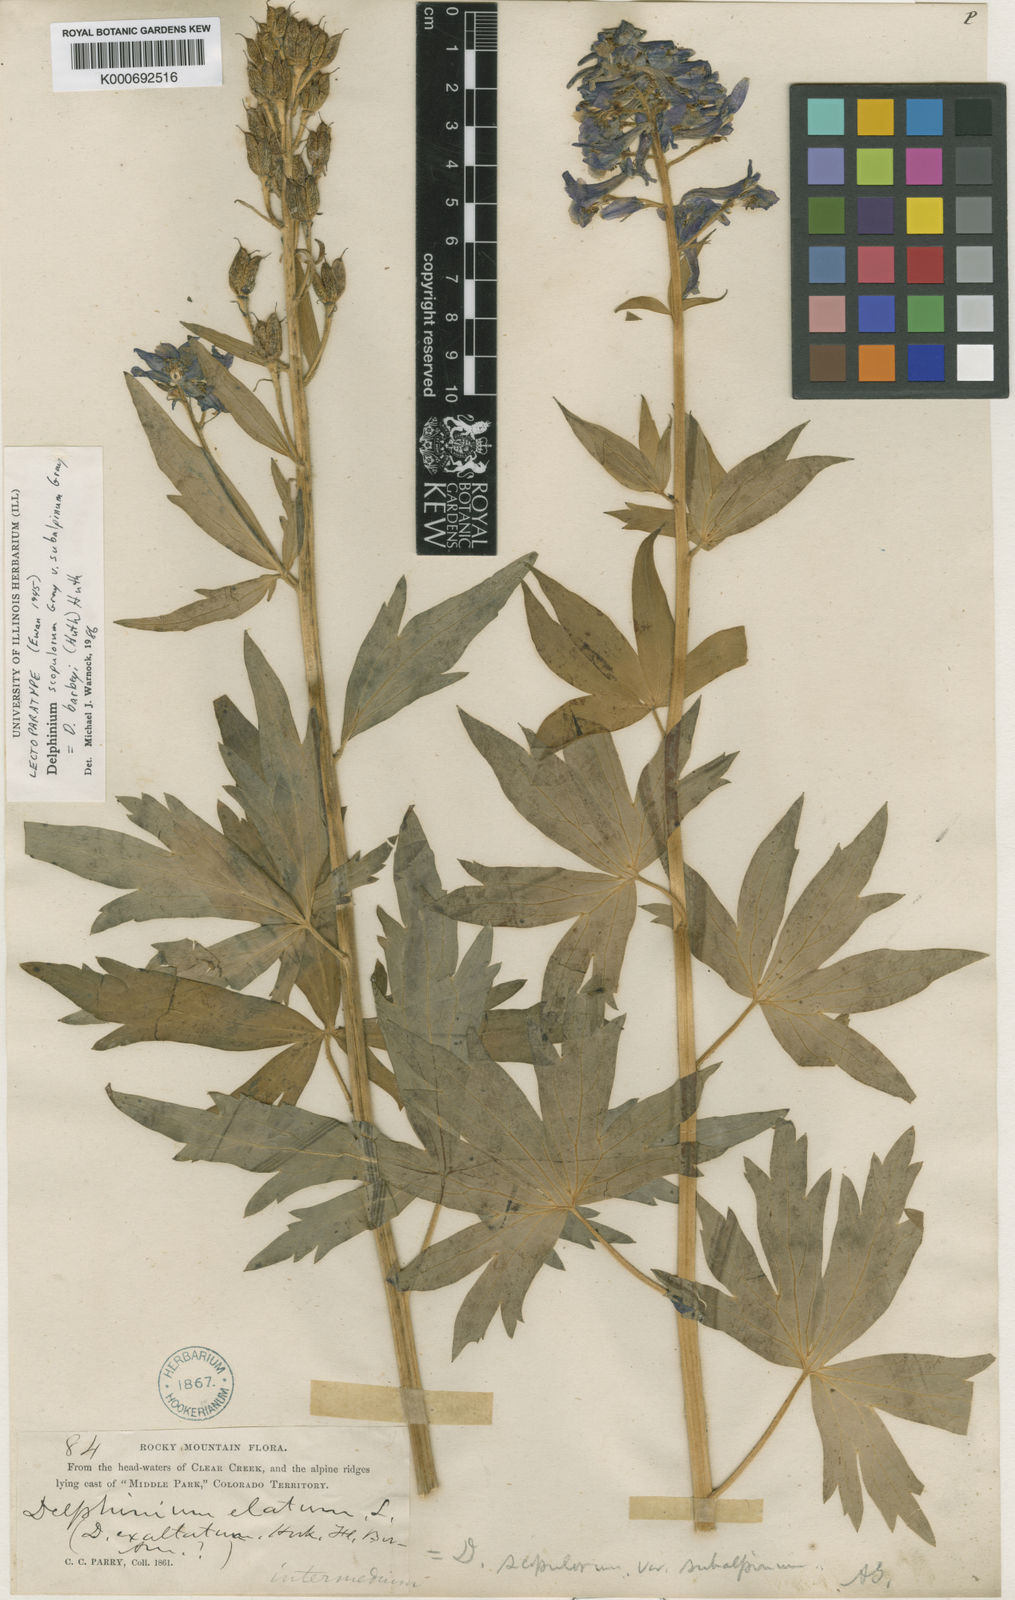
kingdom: Plantae
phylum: Tracheophyta
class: Magnoliopsida
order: Ranunculales
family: Ranunculaceae
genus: Delphinium
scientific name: Delphinium scopulorum
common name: Rocky mountain larkspur
